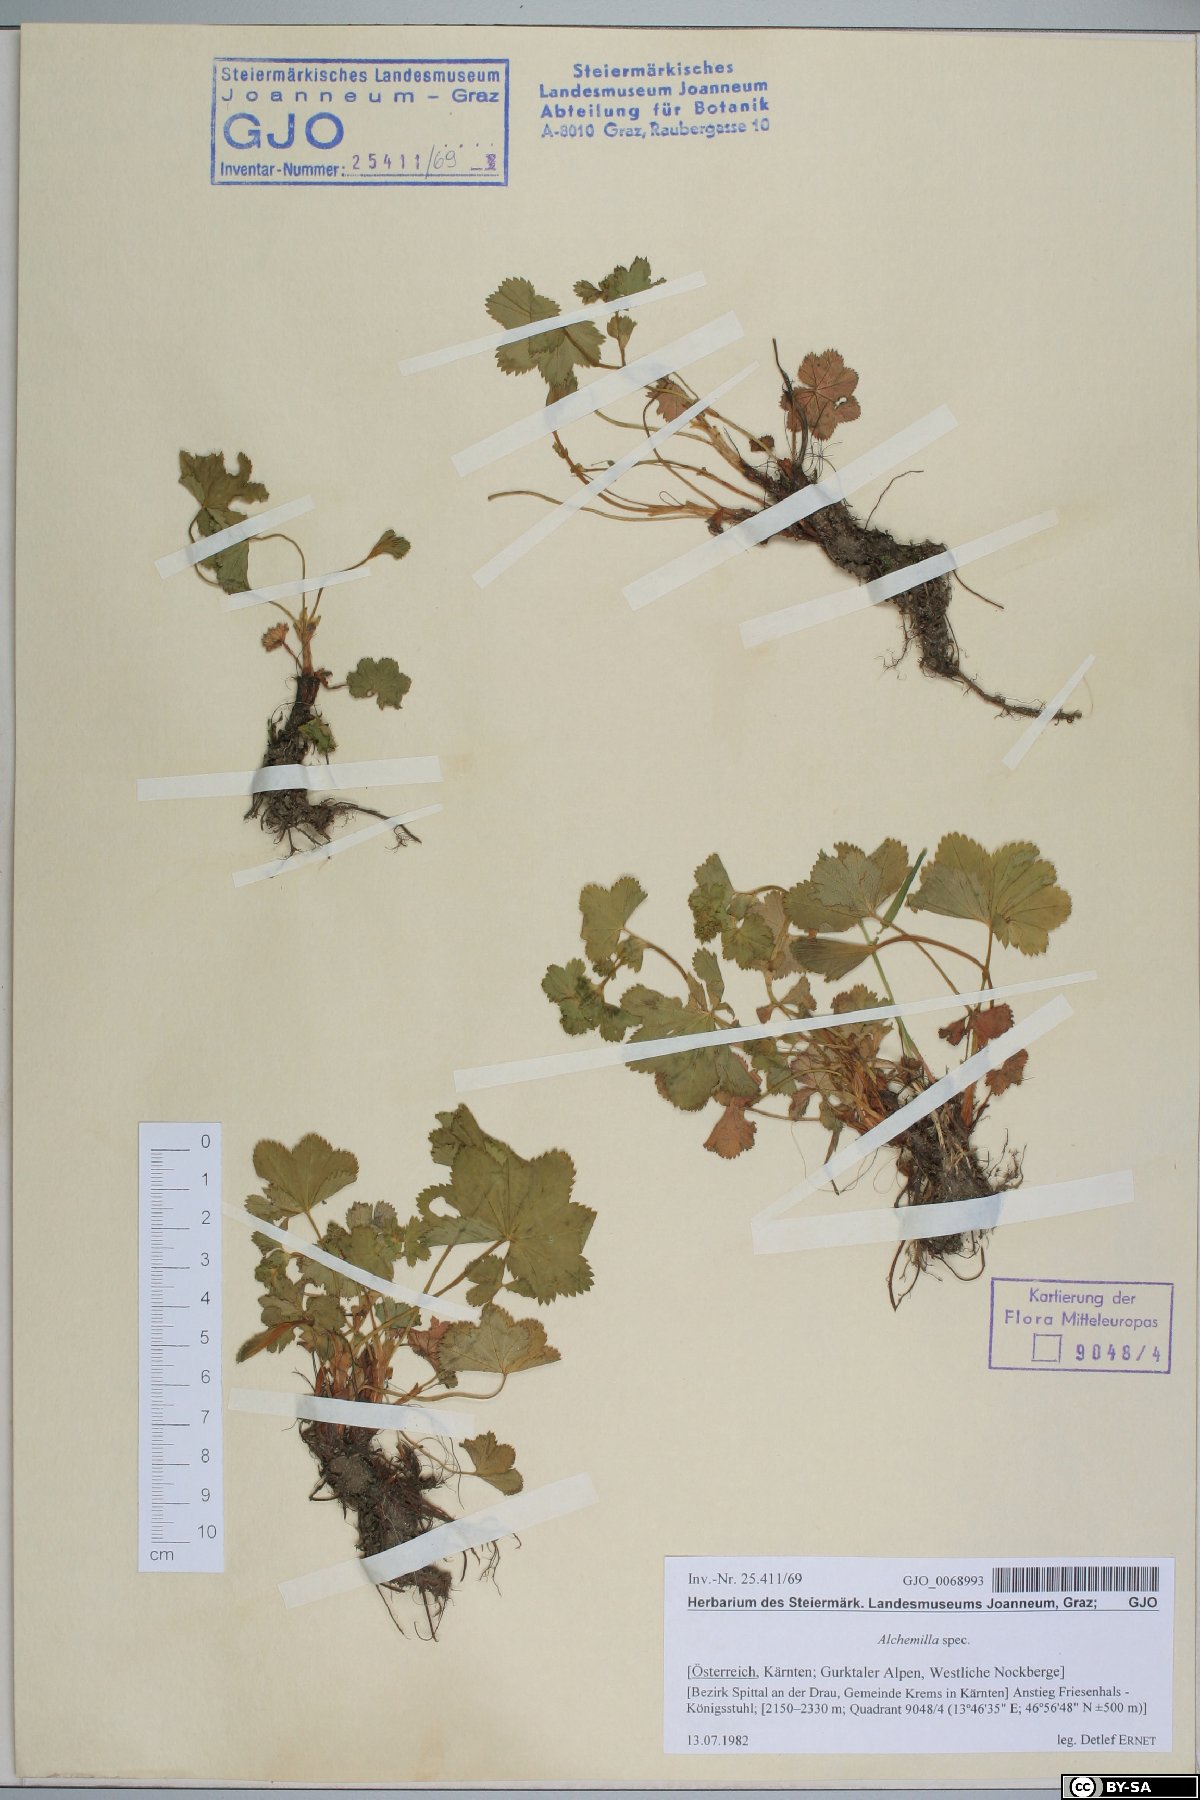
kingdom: Plantae
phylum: Tracheophyta
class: Magnoliopsida
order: Rosales
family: Rosaceae
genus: Alchemilla
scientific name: Alchemilla
